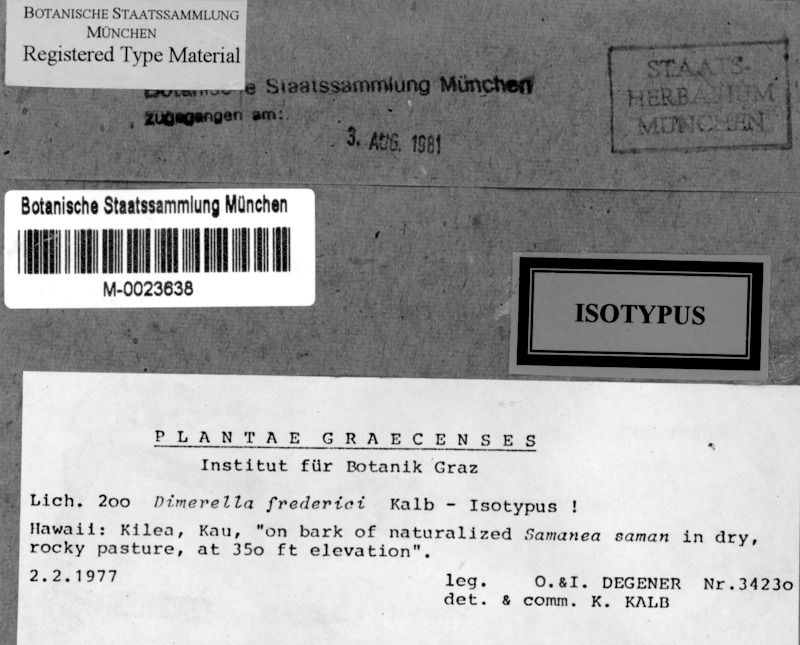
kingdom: Fungi
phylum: Ascomycota
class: Lecanoromycetes
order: Ostropales
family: Coenogoniaceae
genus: Coenogonium
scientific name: Coenogonium frederici
